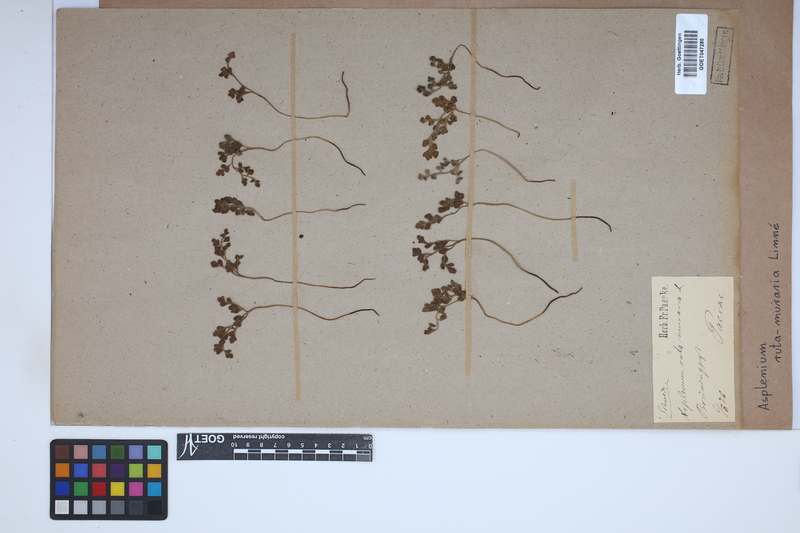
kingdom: Plantae
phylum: Tracheophyta
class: Polypodiopsida
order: Polypodiales
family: Aspleniaceae
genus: Asplenium
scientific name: Asplenium ruta-muraria
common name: Wall-rue
